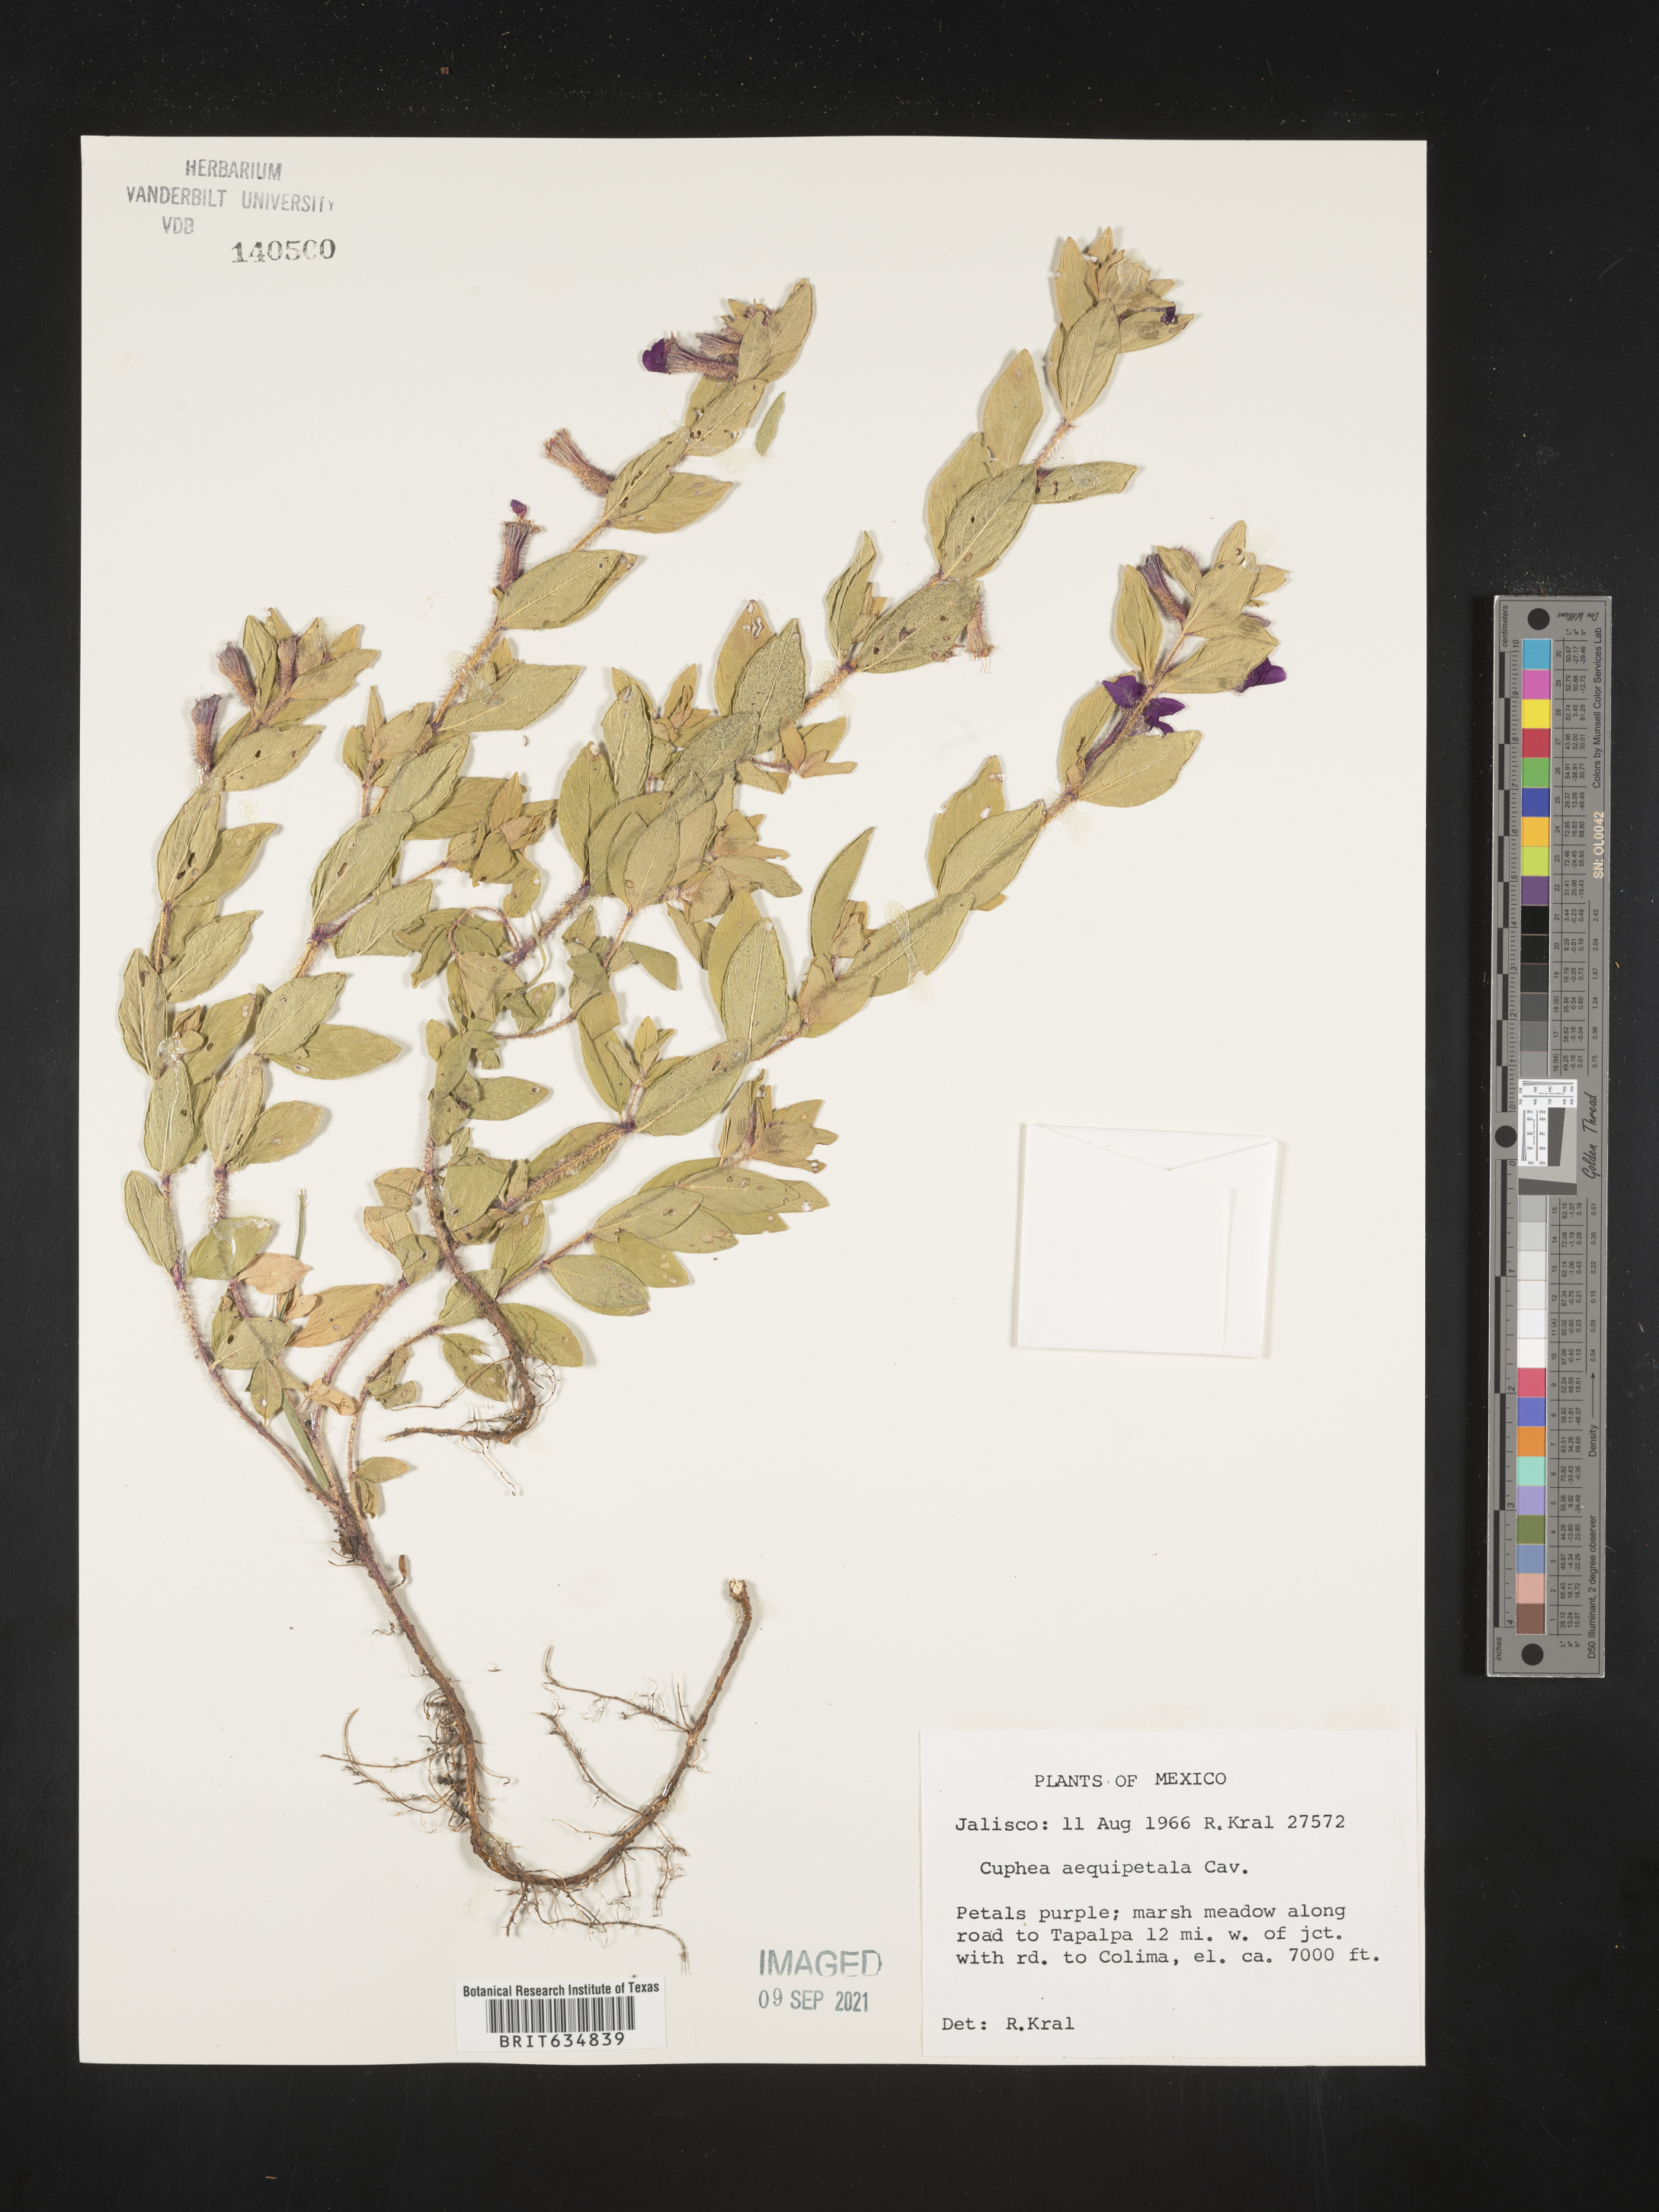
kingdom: Plantae
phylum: Tracheophyta
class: Magnoliopsida
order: Myrtales
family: Lythraceae
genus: Cuphea
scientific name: Cuphea
